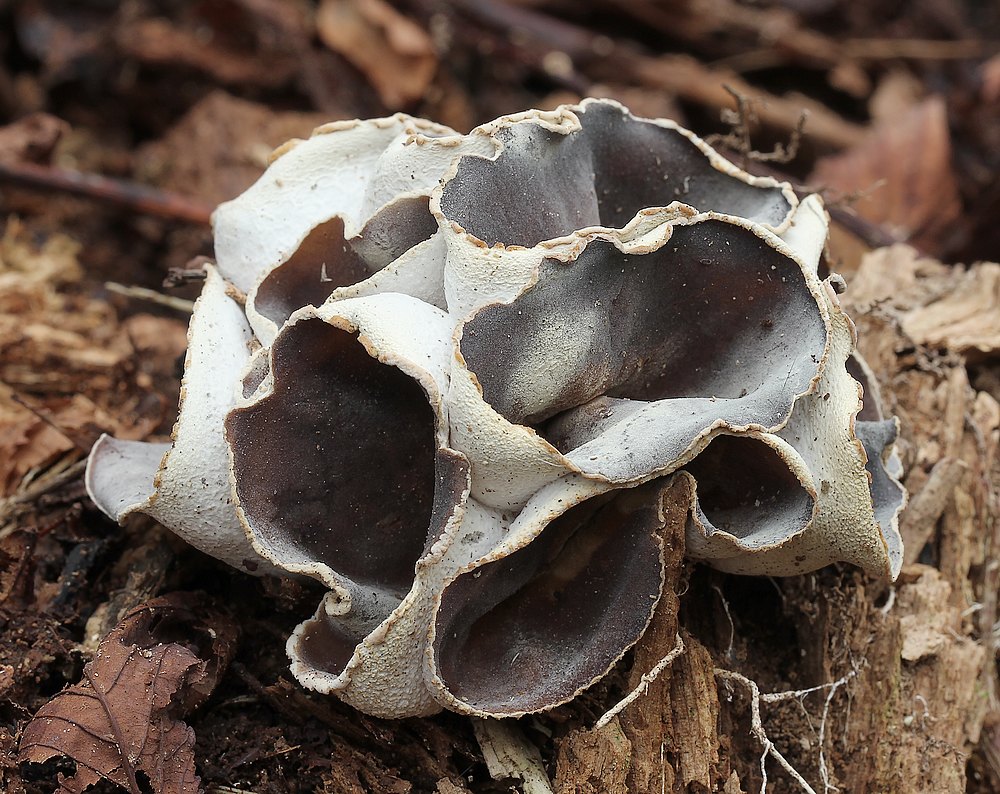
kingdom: Fungi
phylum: Ascomycota
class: Pezizomycetes
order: Pezizales
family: Pezizaceae
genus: Peziza
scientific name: Peziza varia
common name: Ved-bægersvamp
